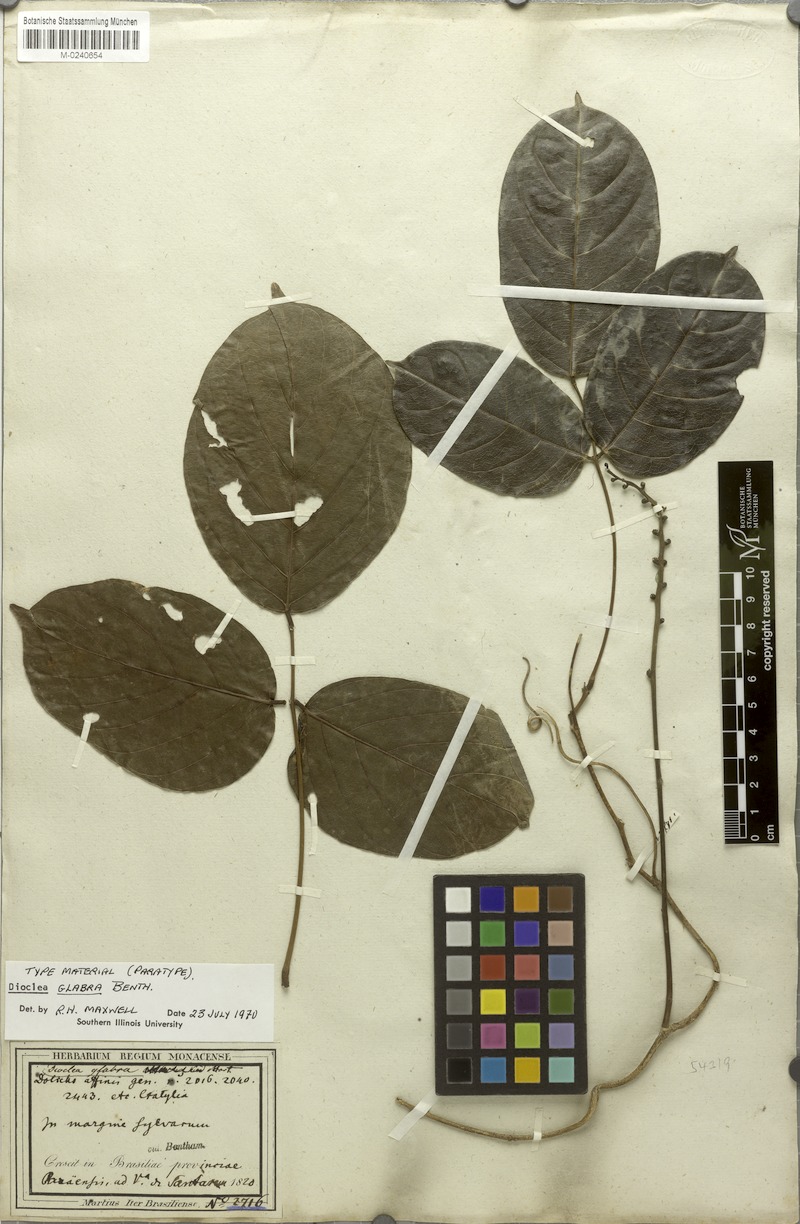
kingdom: Plantae
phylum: Tracheophyta
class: Magnoliopsida
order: Fabales
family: Fabaceae
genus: Macropsychanthus
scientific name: Macropsychanthus glaber
